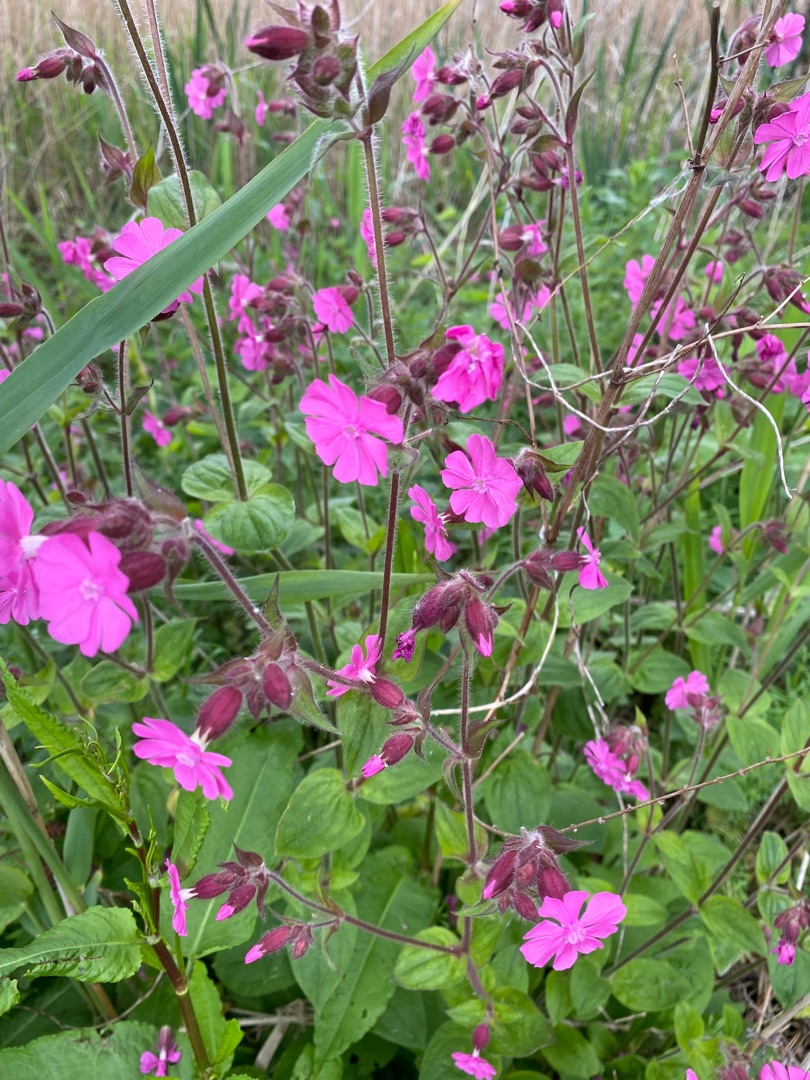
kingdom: Plantae
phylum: Tracheophyta
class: Magnoliopsida
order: Caryophyllales
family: Caryophyllaceae
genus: Silene
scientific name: Silene dioica
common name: Dagpragtstjerne
